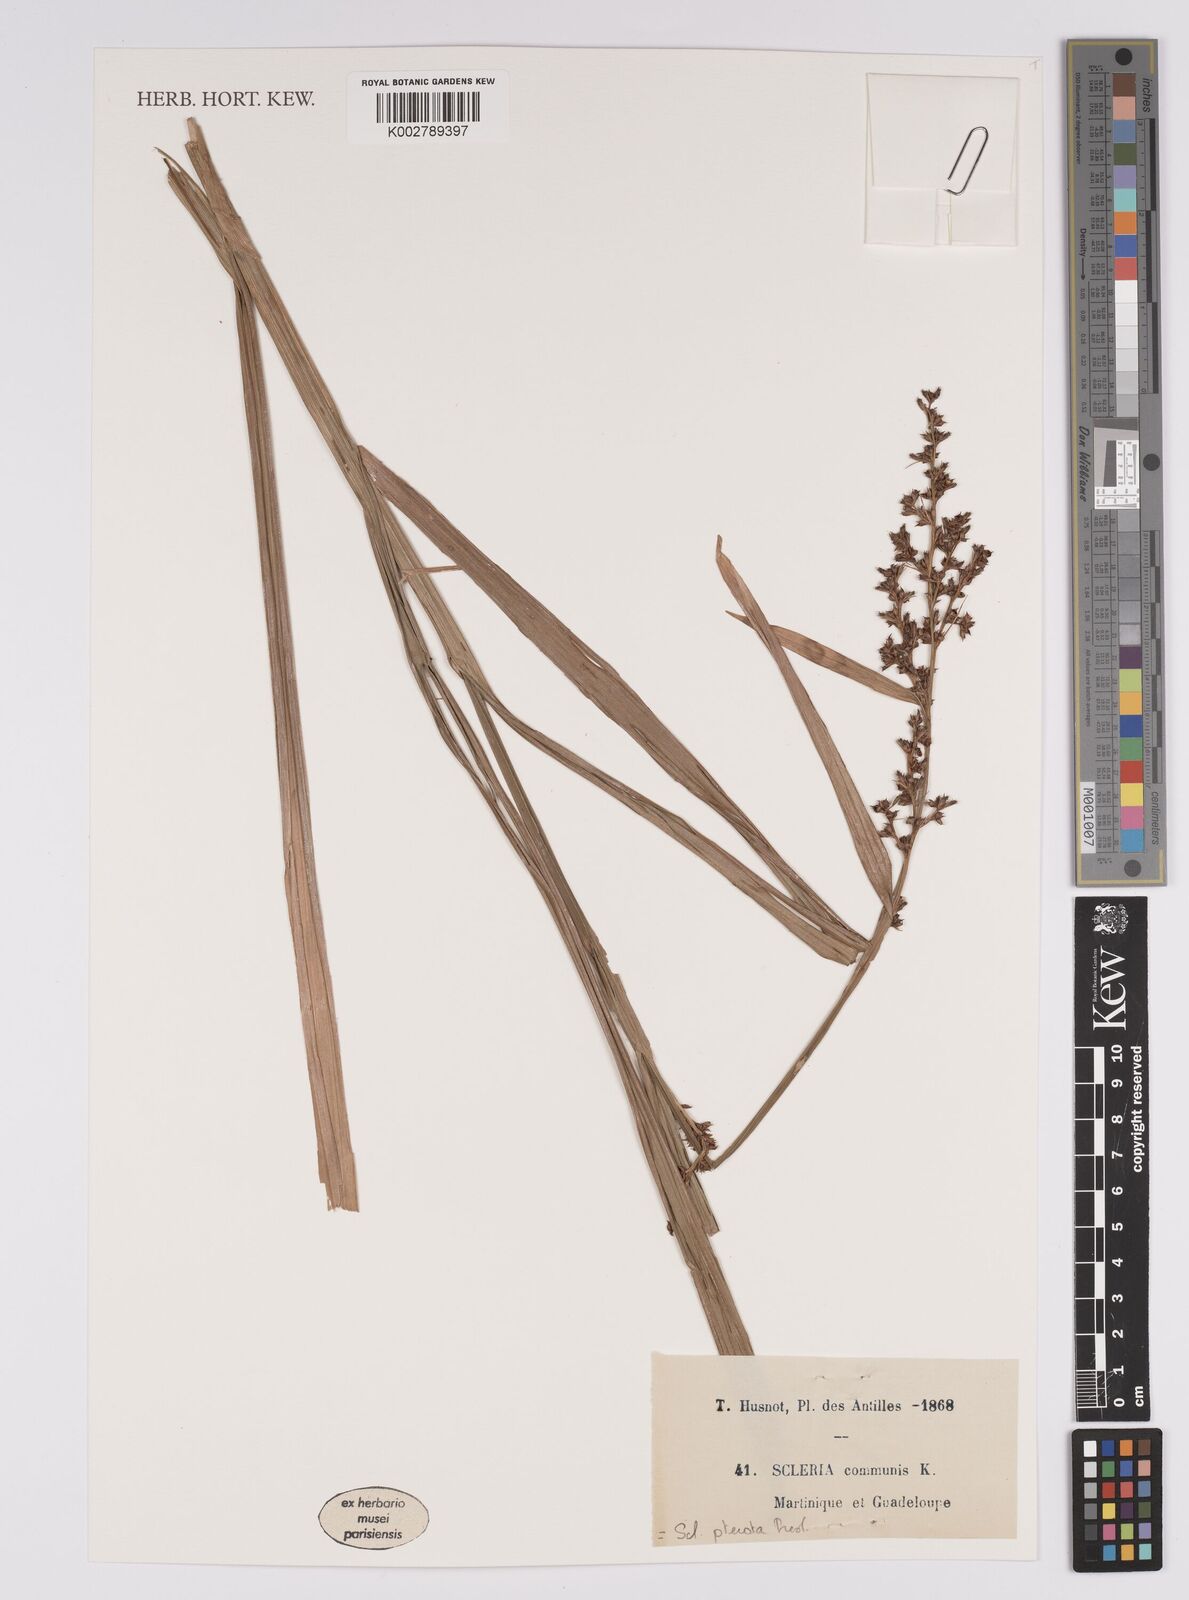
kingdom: Plantae
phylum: Tracheophyta
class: Liliopsida
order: Poales
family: Cyperaceae
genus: Scleria
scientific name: Scleria gaertneri
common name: Cortadera blanca
